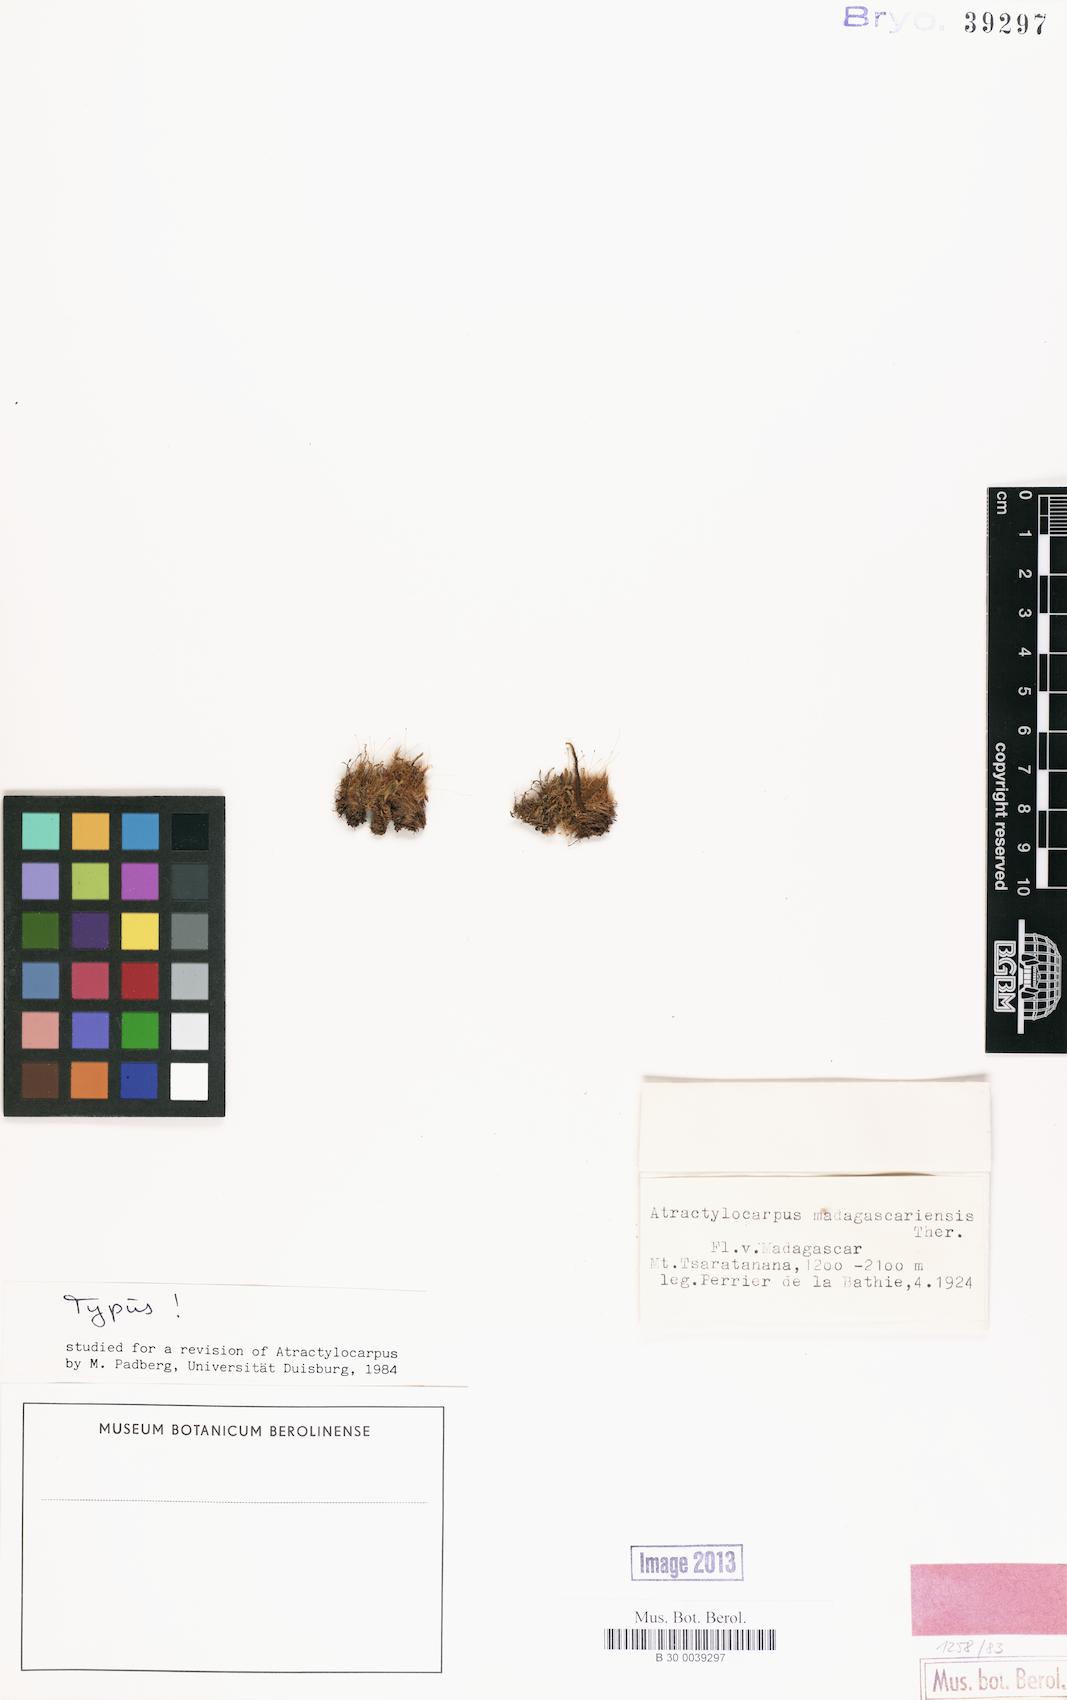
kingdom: Plantae
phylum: Bryophyta
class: Bryopsida
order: Dicranales
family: Leucobryaceae
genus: Atractylocarpus
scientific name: Atractylocarpus madagascariensis
